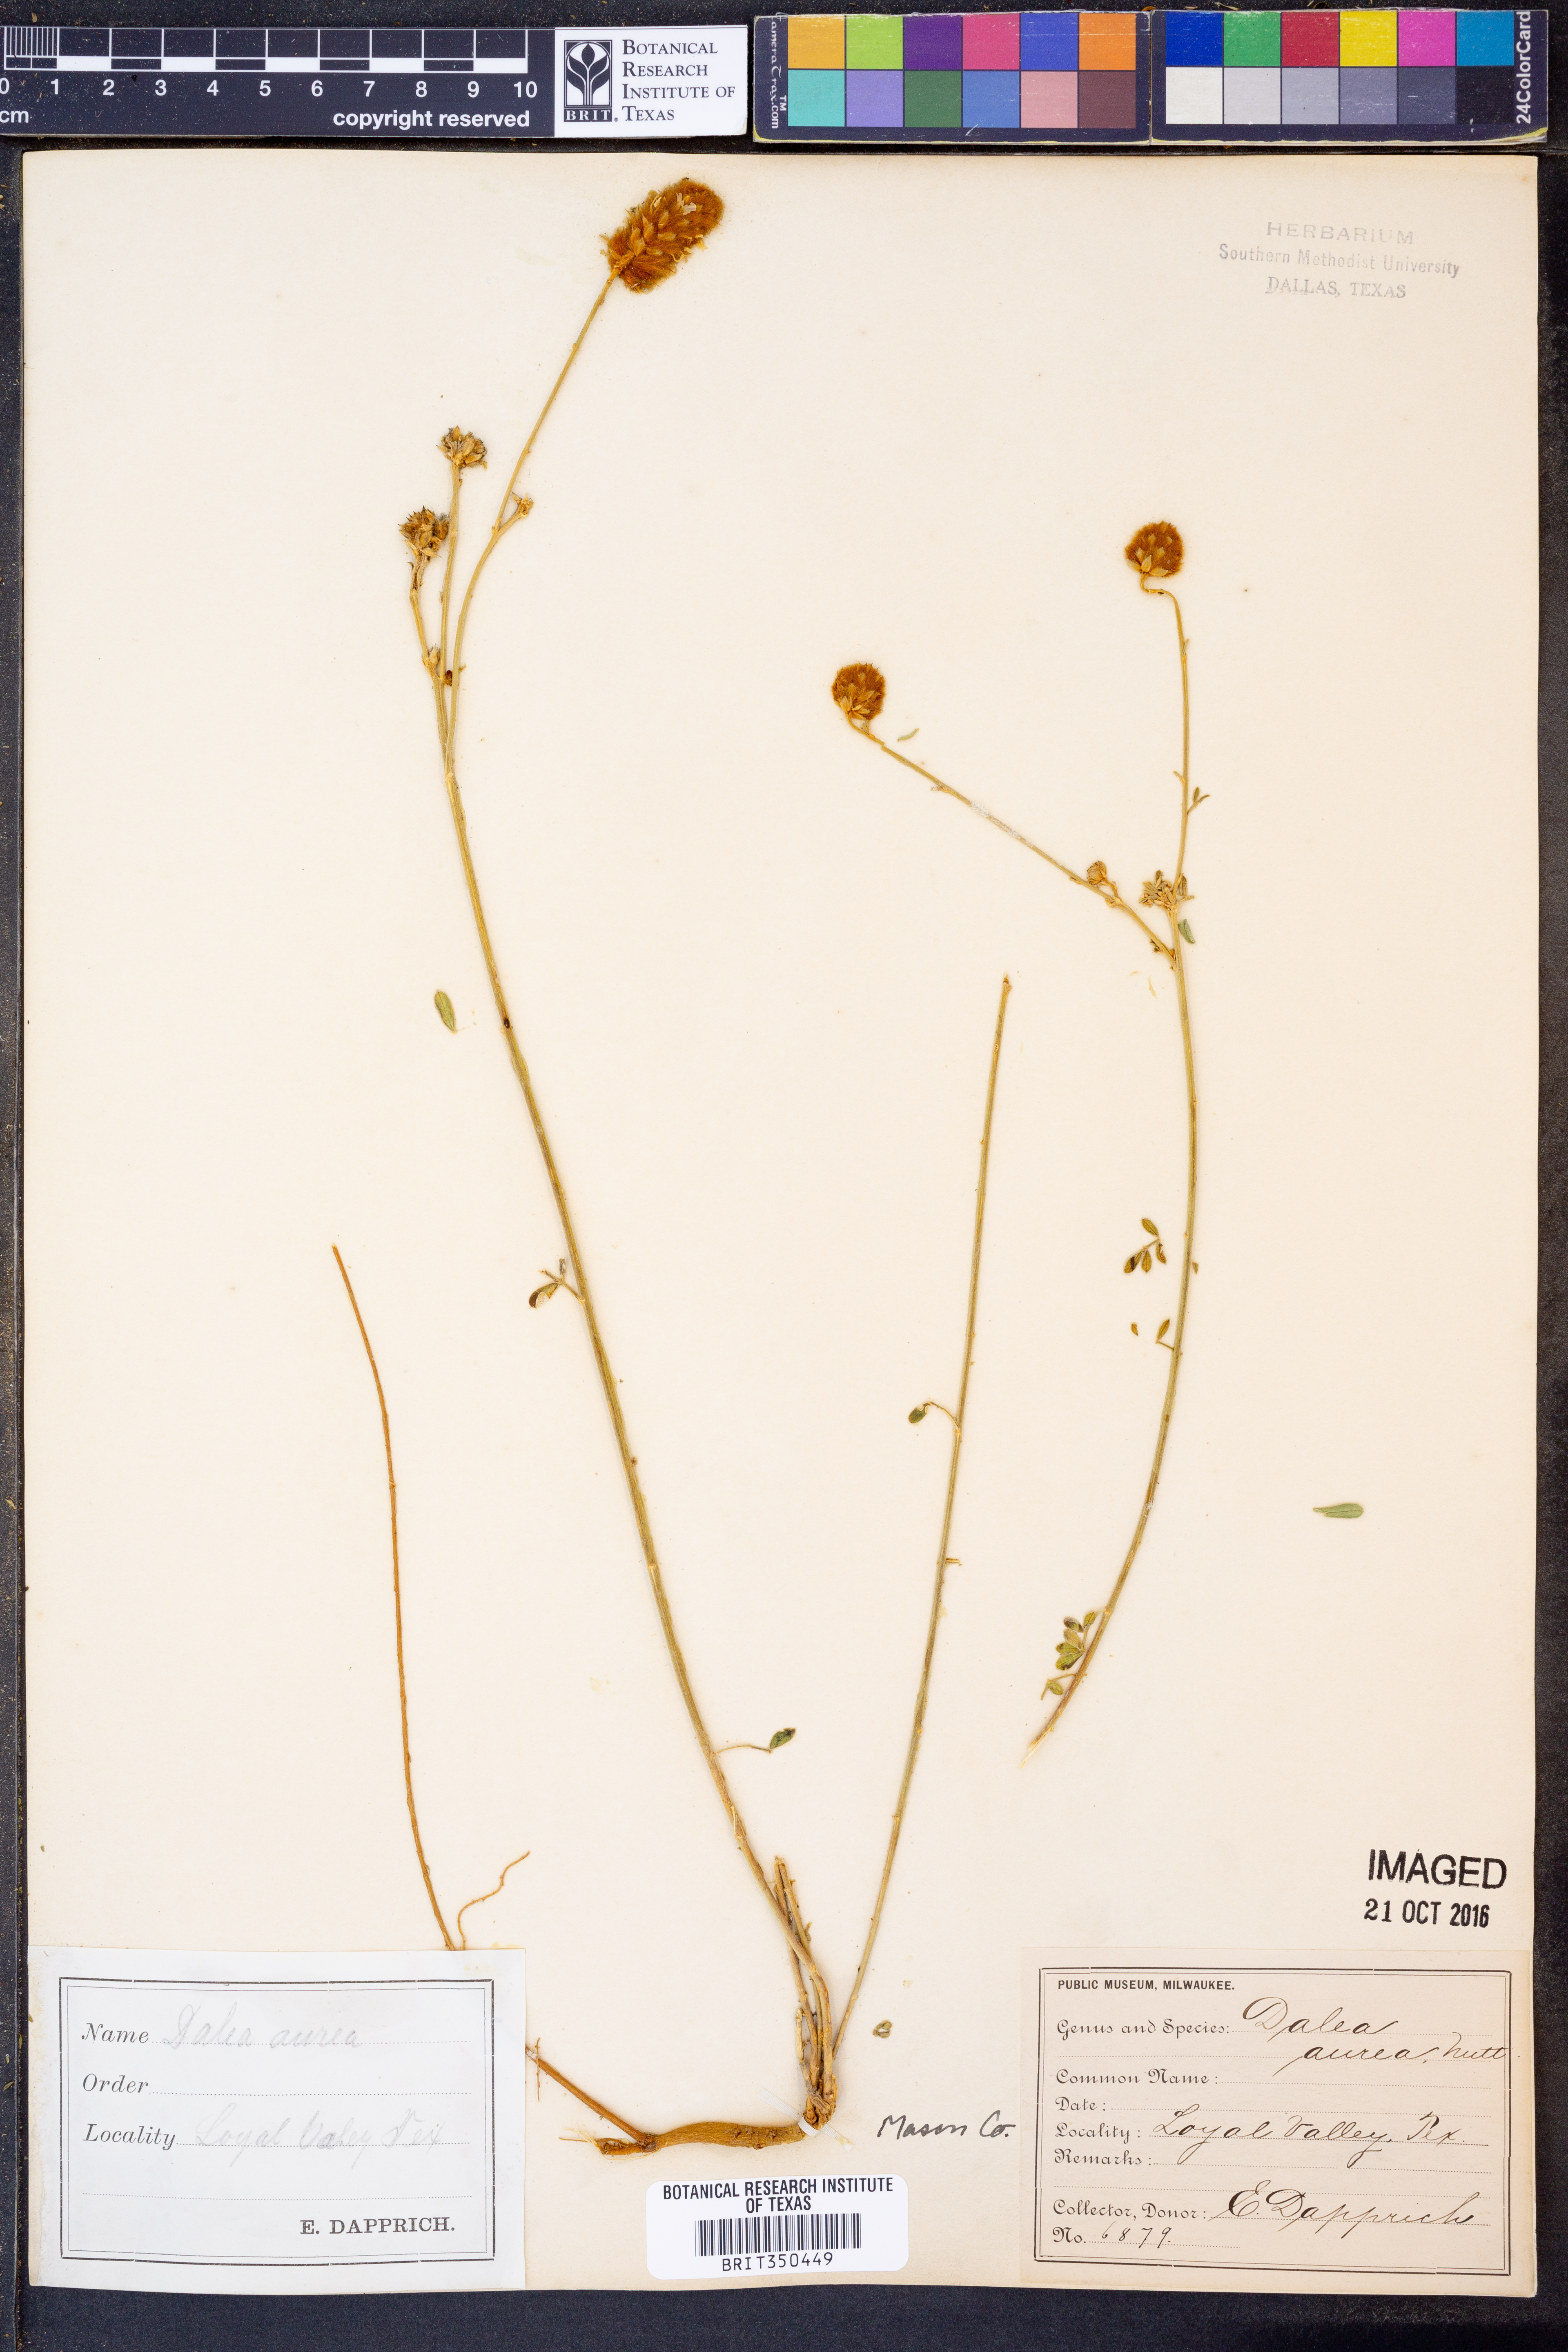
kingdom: Plantae
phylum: Tracheophyta
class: Magnoliopsida
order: Fabales
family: Fabaceae
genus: Dalea
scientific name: Dalea aurea
